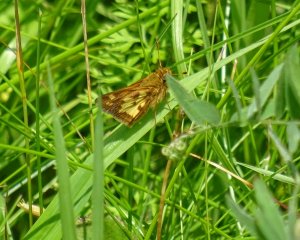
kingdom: Animalia
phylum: Arthropoda
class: Insecta
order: Lepidoptera
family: Hesperiidae
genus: Polites
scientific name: Polites coras
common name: Peck's Skipper
